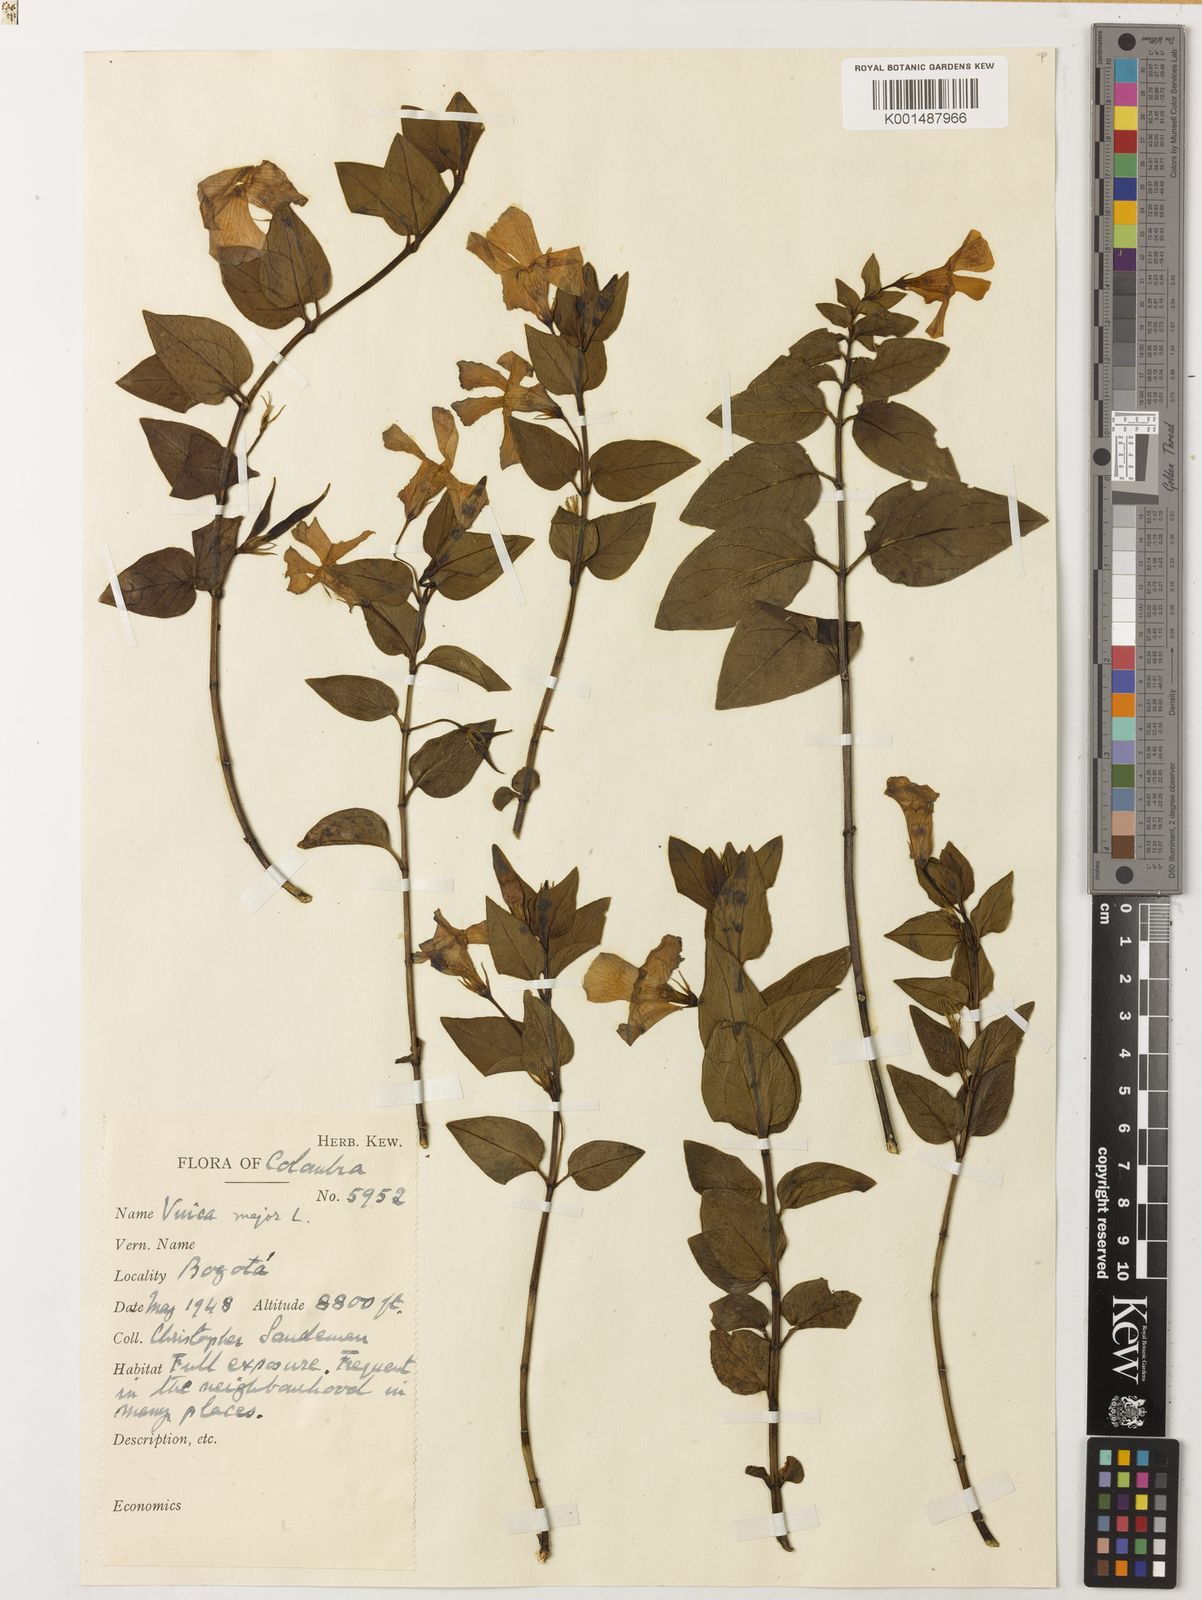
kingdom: Plantae
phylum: Tracheophyta
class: Magnoliopsida
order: Gentianales
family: Apocynaceae
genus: Vinca
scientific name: Vinca major
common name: Greater periwinkle
